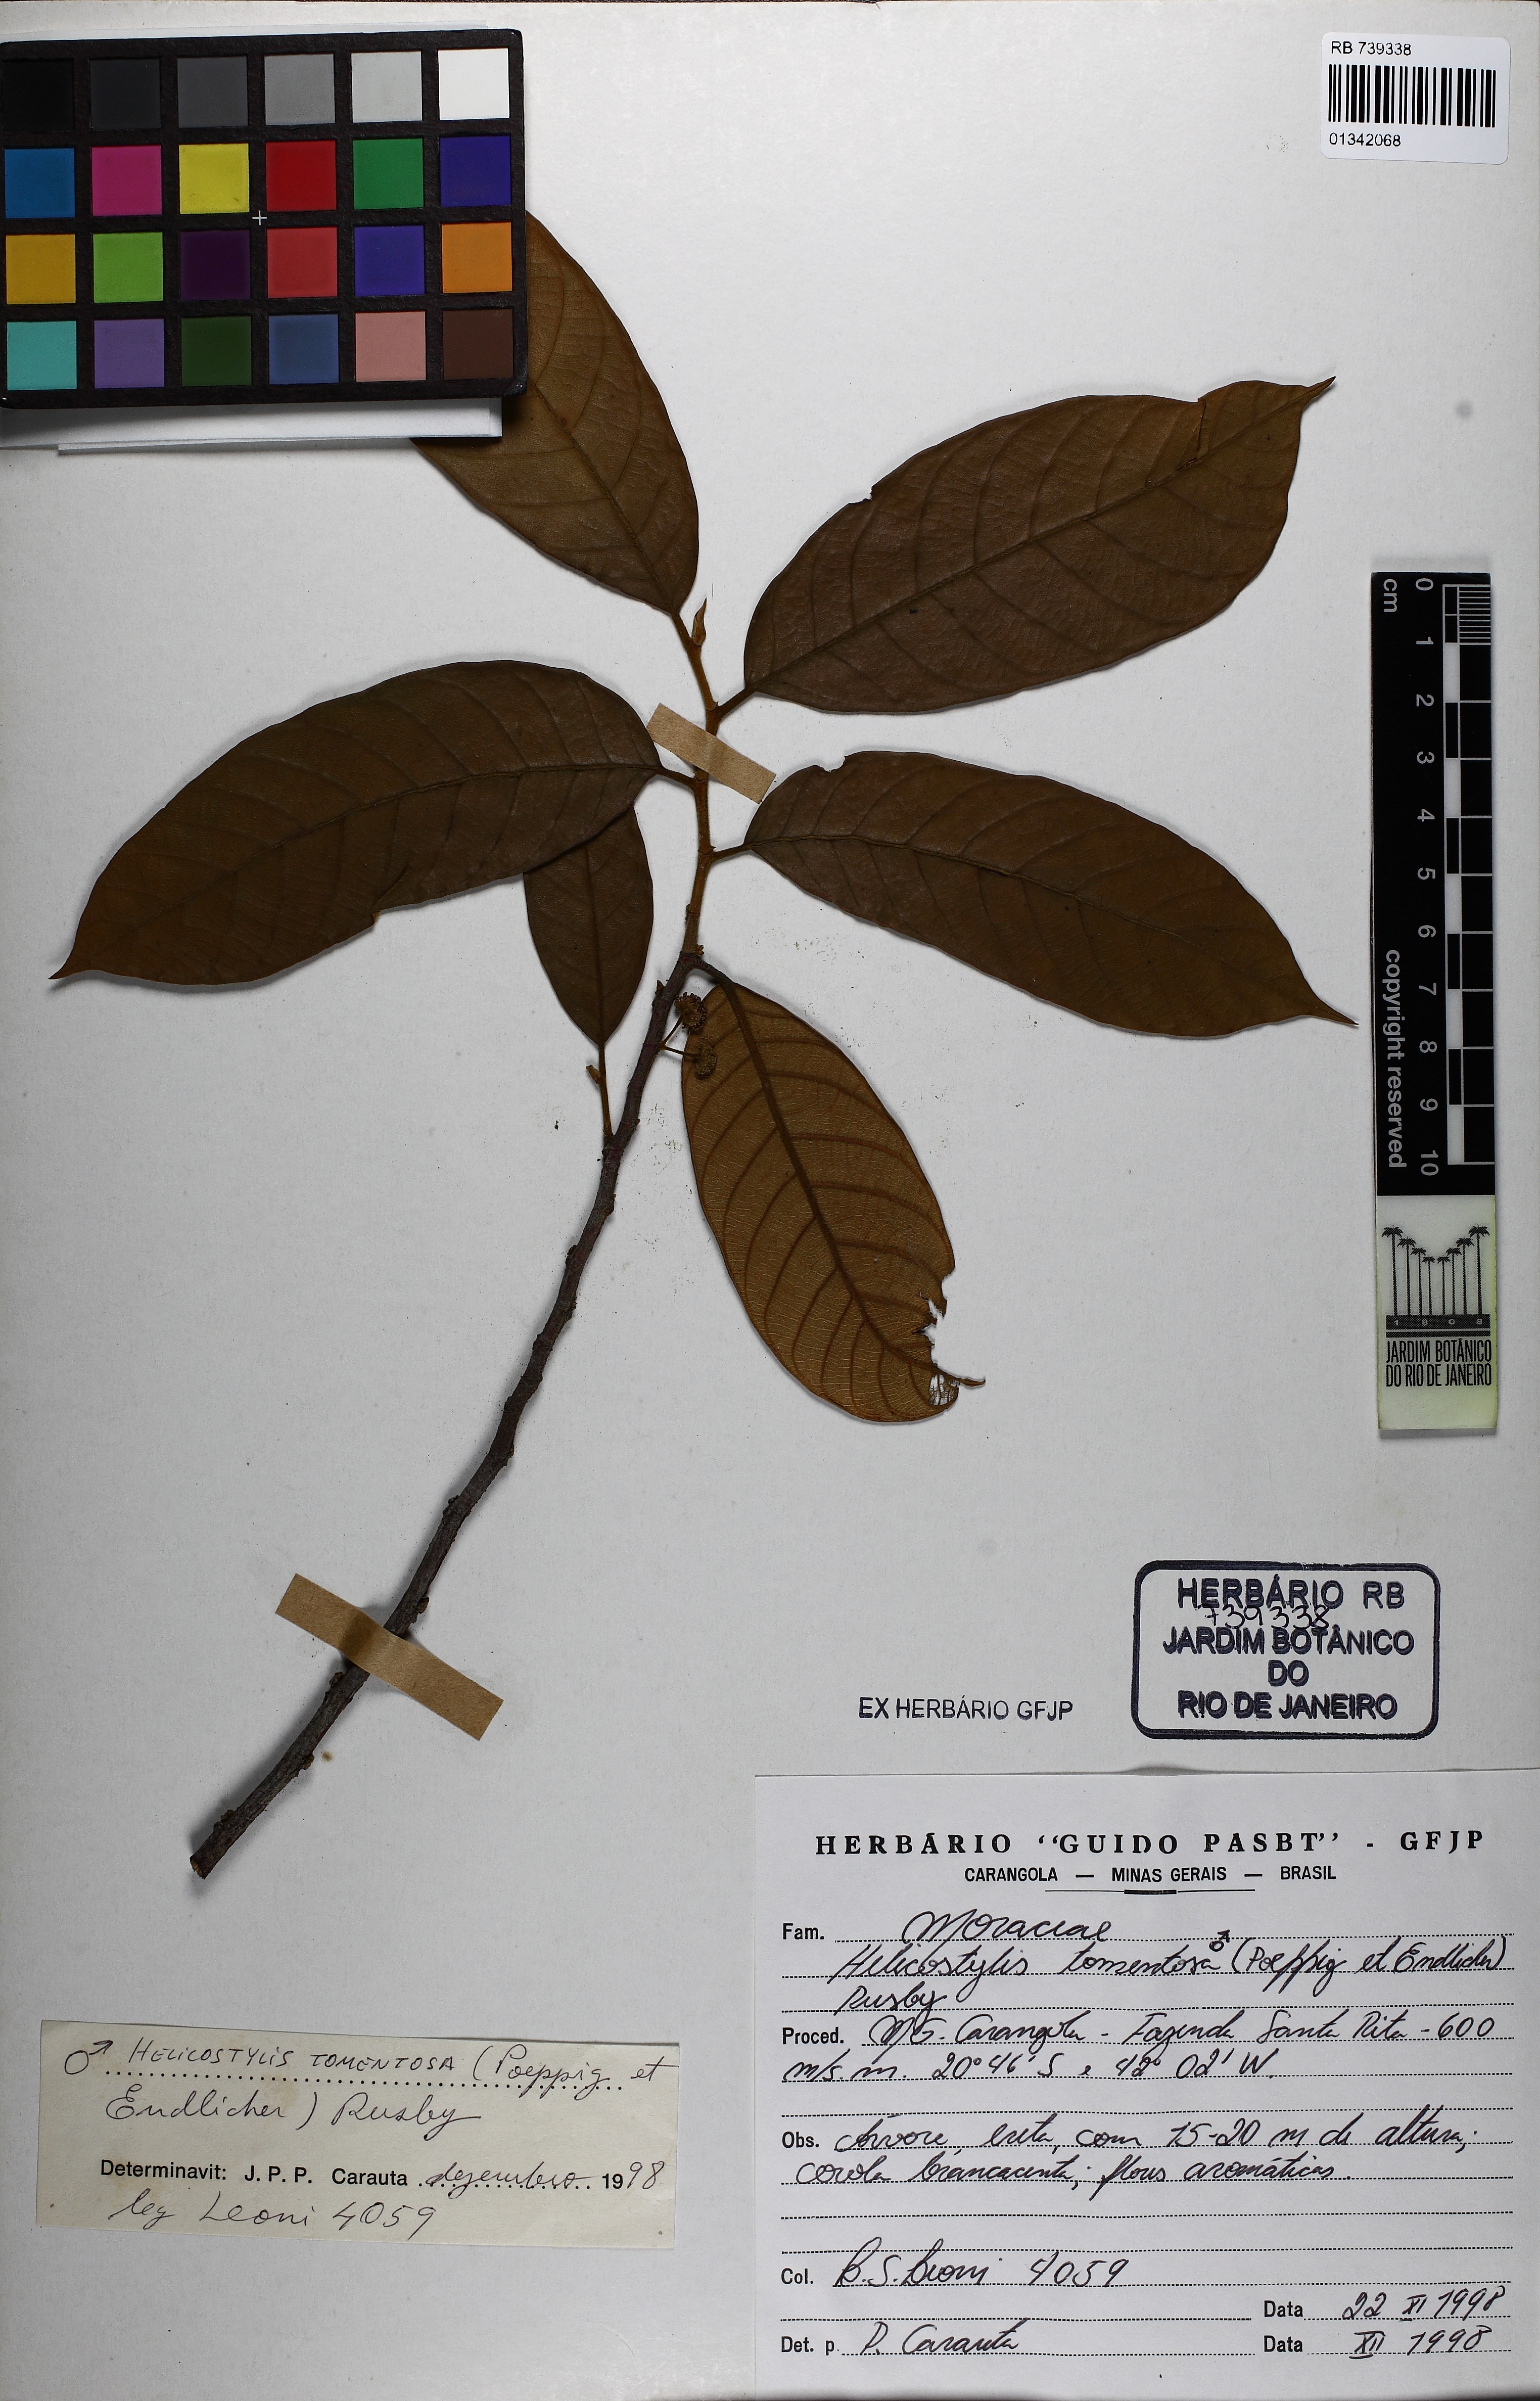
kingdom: Plantae
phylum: Tracheophyta
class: Magnoliopsida
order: Rosales
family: Moraceae
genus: Helicostylis
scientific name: Helicostylis tomentosa
